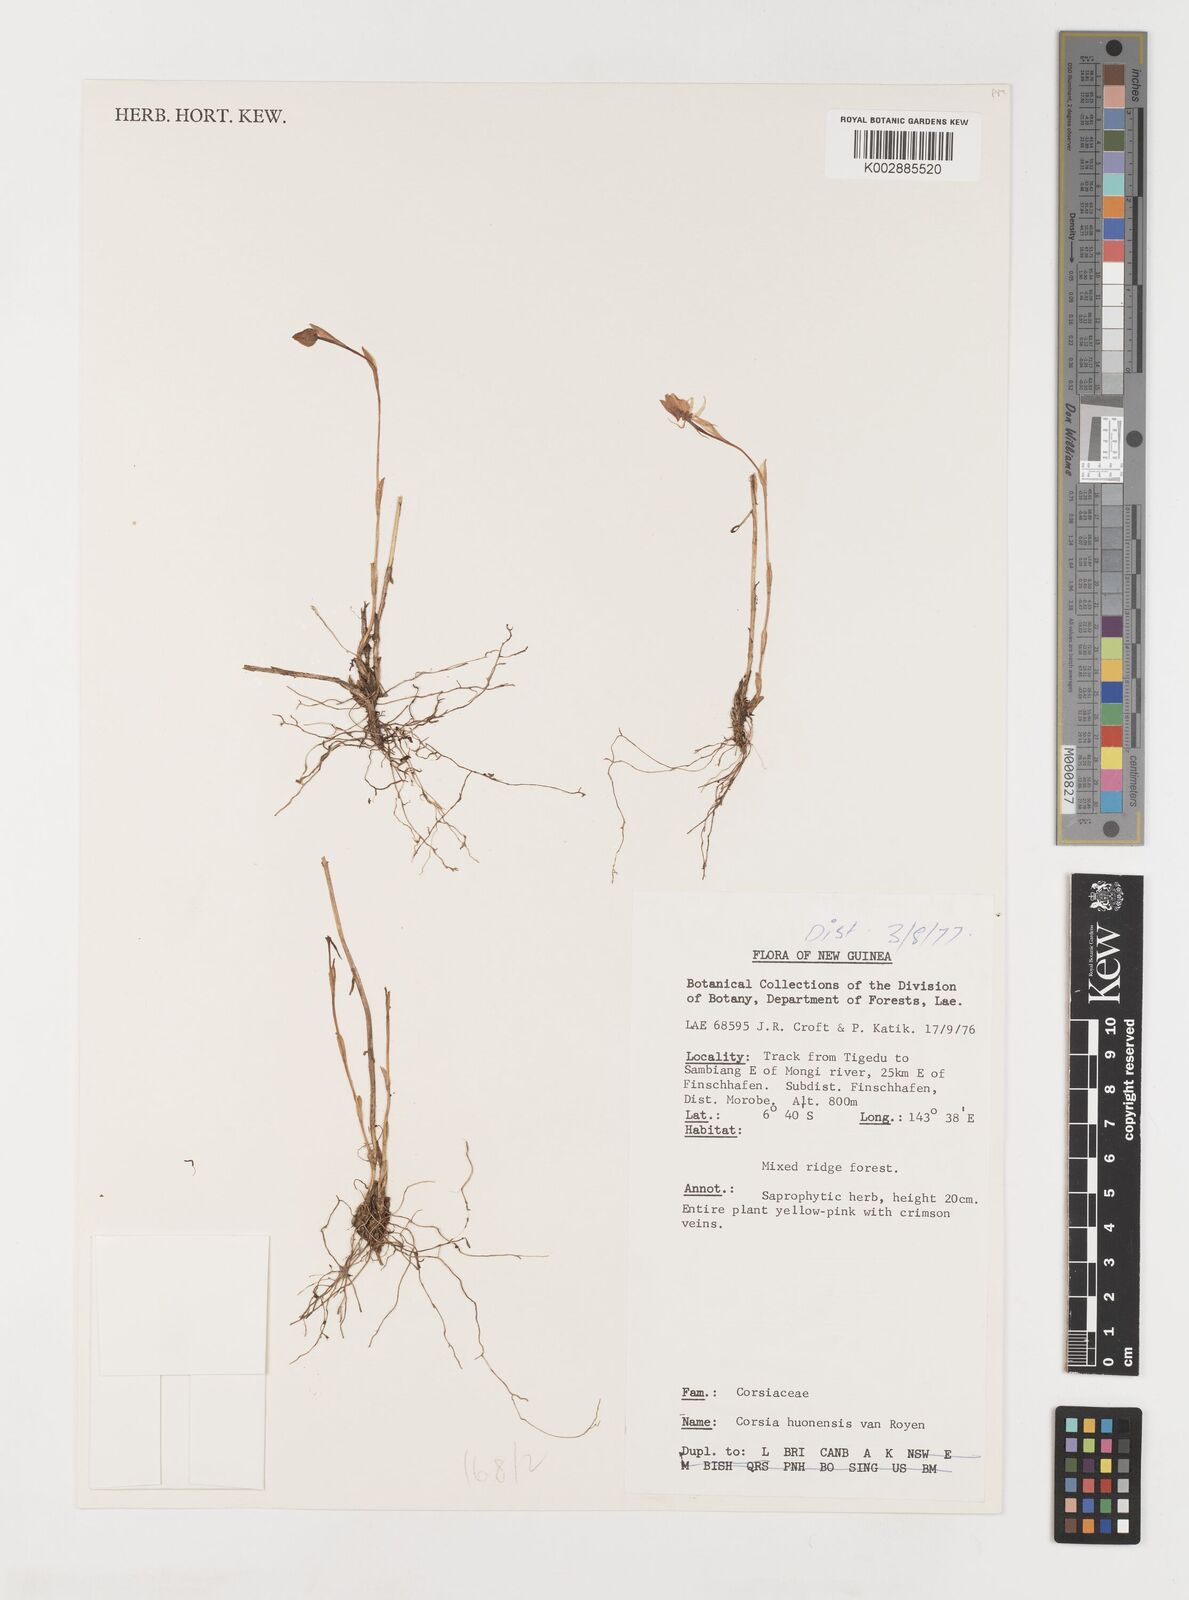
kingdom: Plantae
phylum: Tracheophyta
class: Liliopsida
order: Liliales
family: Corsiaceae
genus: Corsia
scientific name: Corsia huonensis
